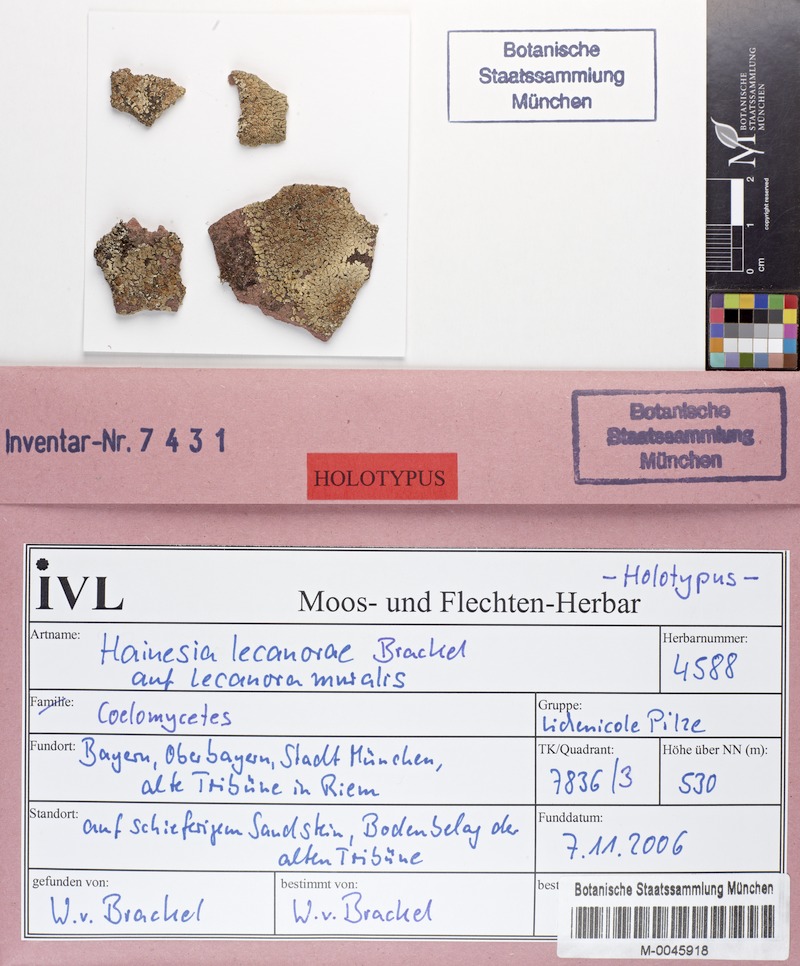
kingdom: Fungi
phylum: Ascomycota
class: Leotiomycetes
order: Chaetomellales
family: Chaetomellaceae
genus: Hainesia
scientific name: Hainesia lecanorae
